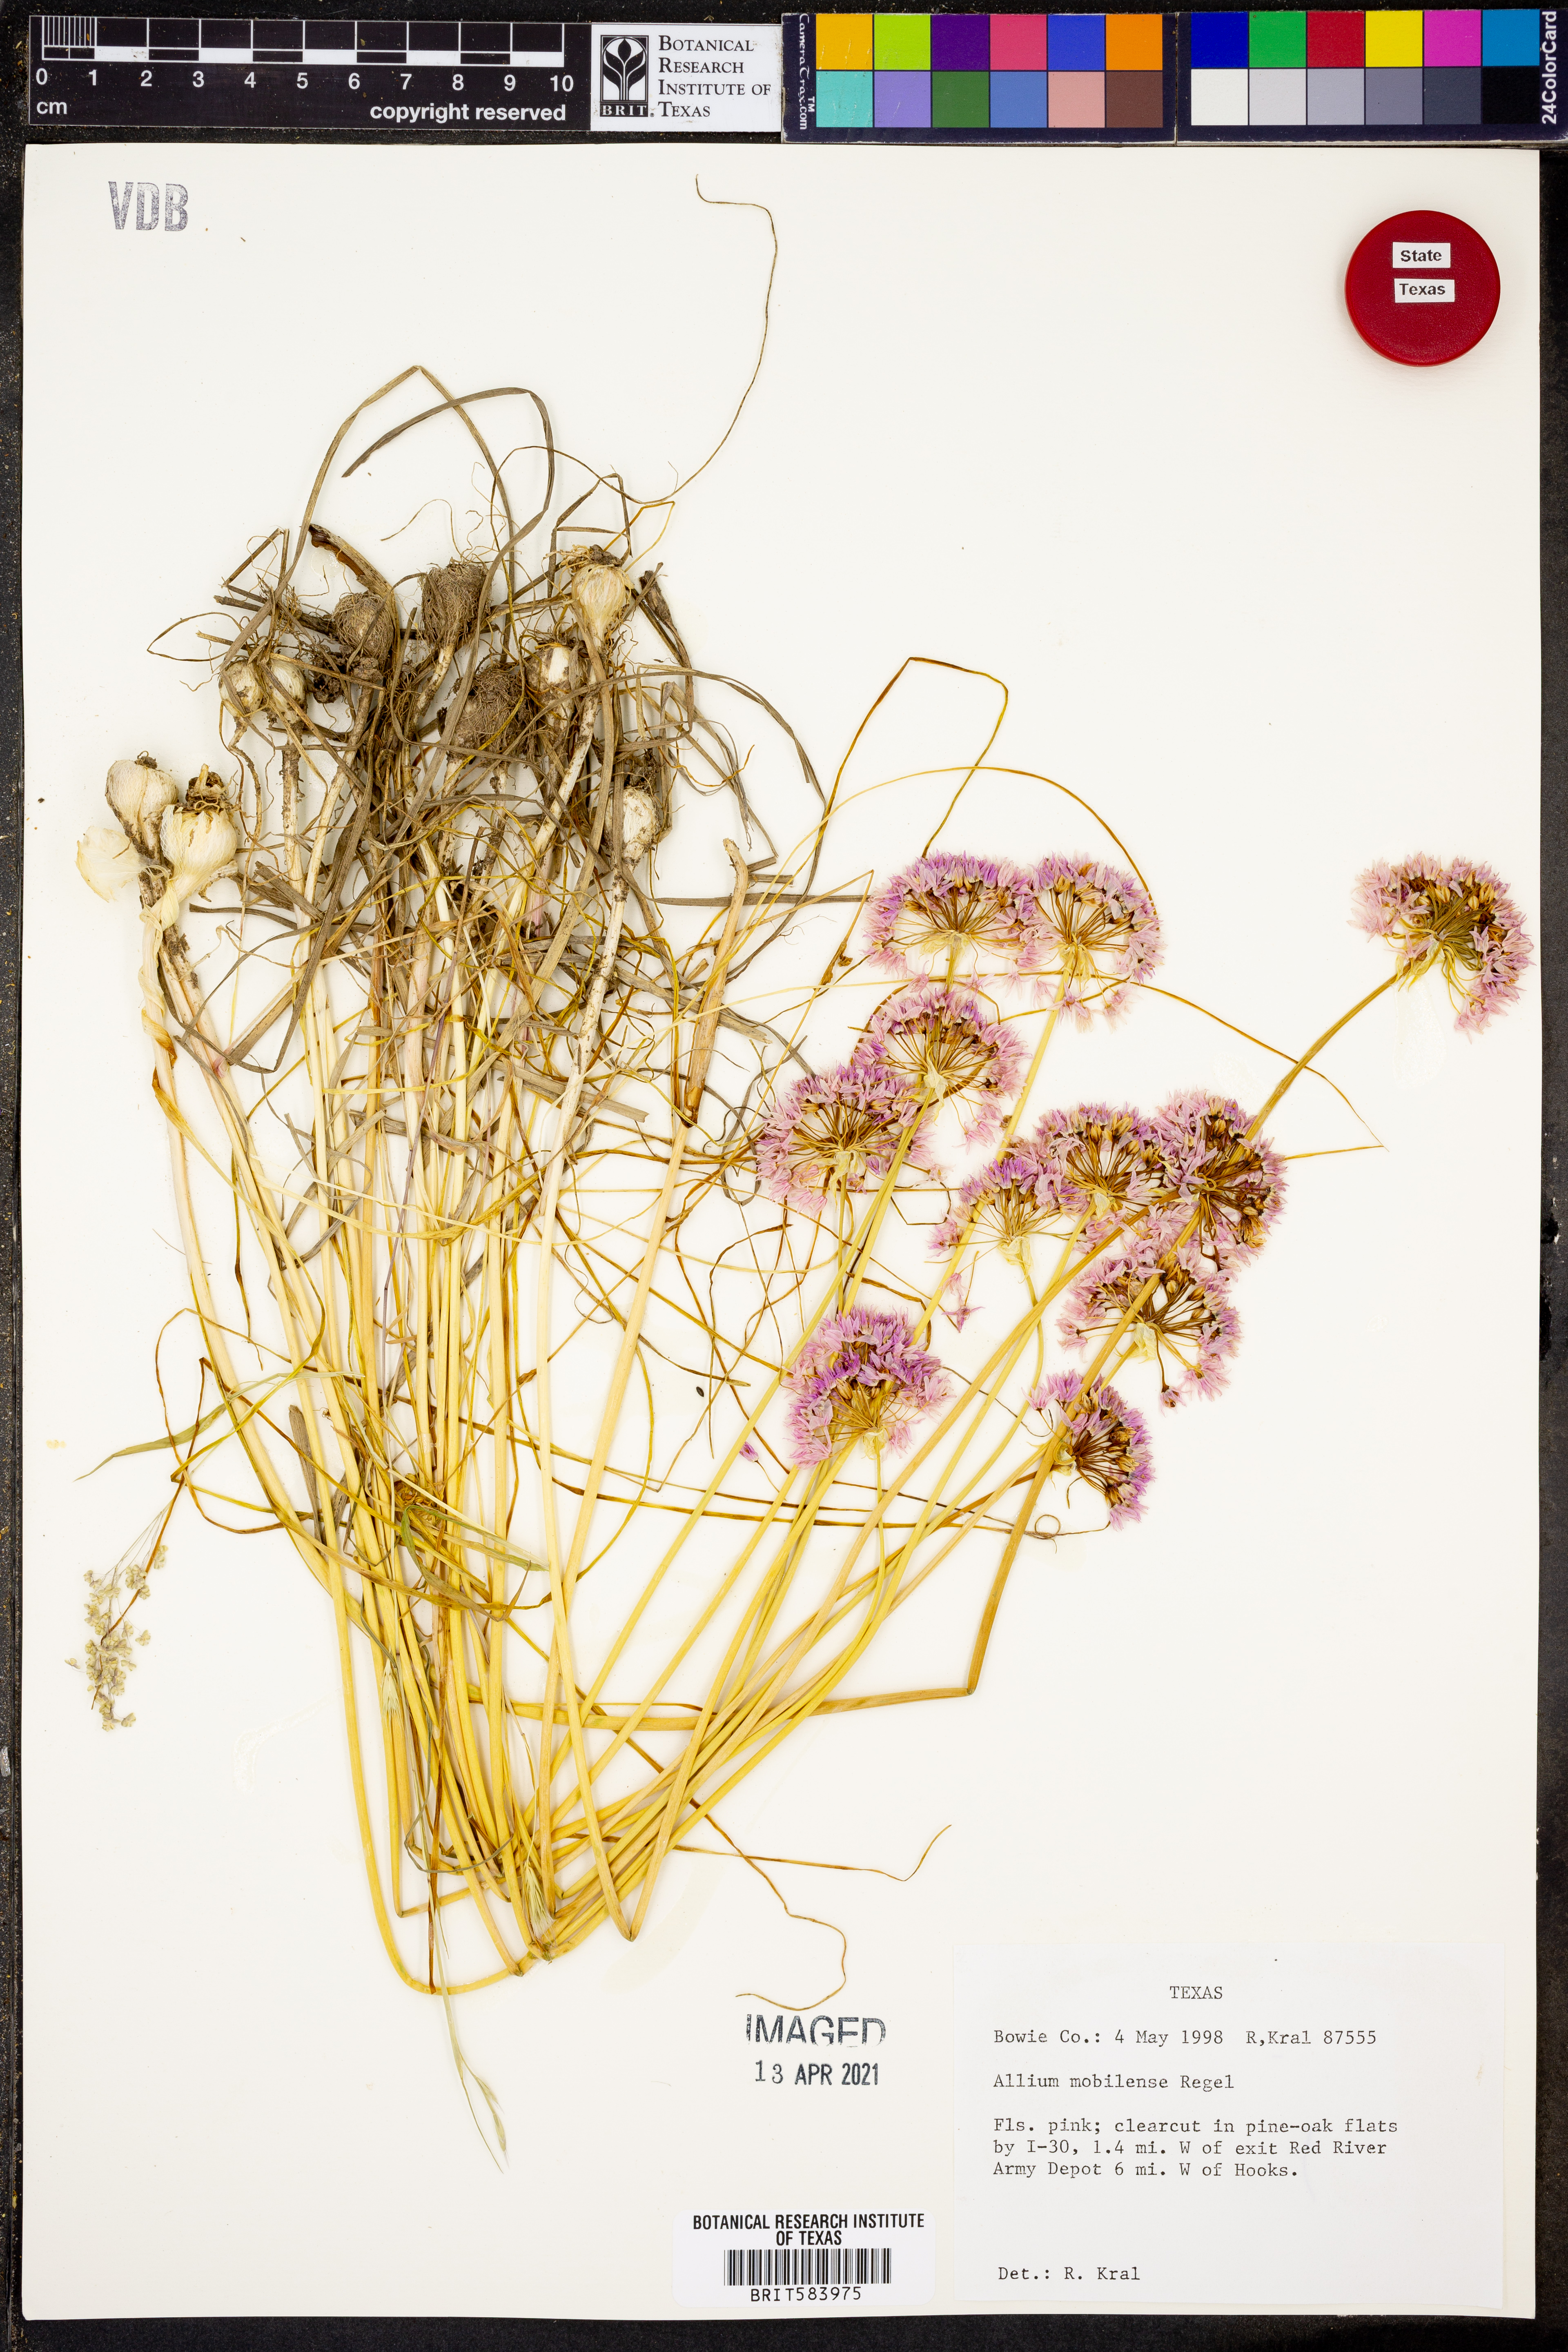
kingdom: Plantae
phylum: Tracheophyta
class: Liliopsida
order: Asparagales
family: Amaryllidaceae
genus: Allium
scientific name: Allium canadense
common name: Meadow garlic
